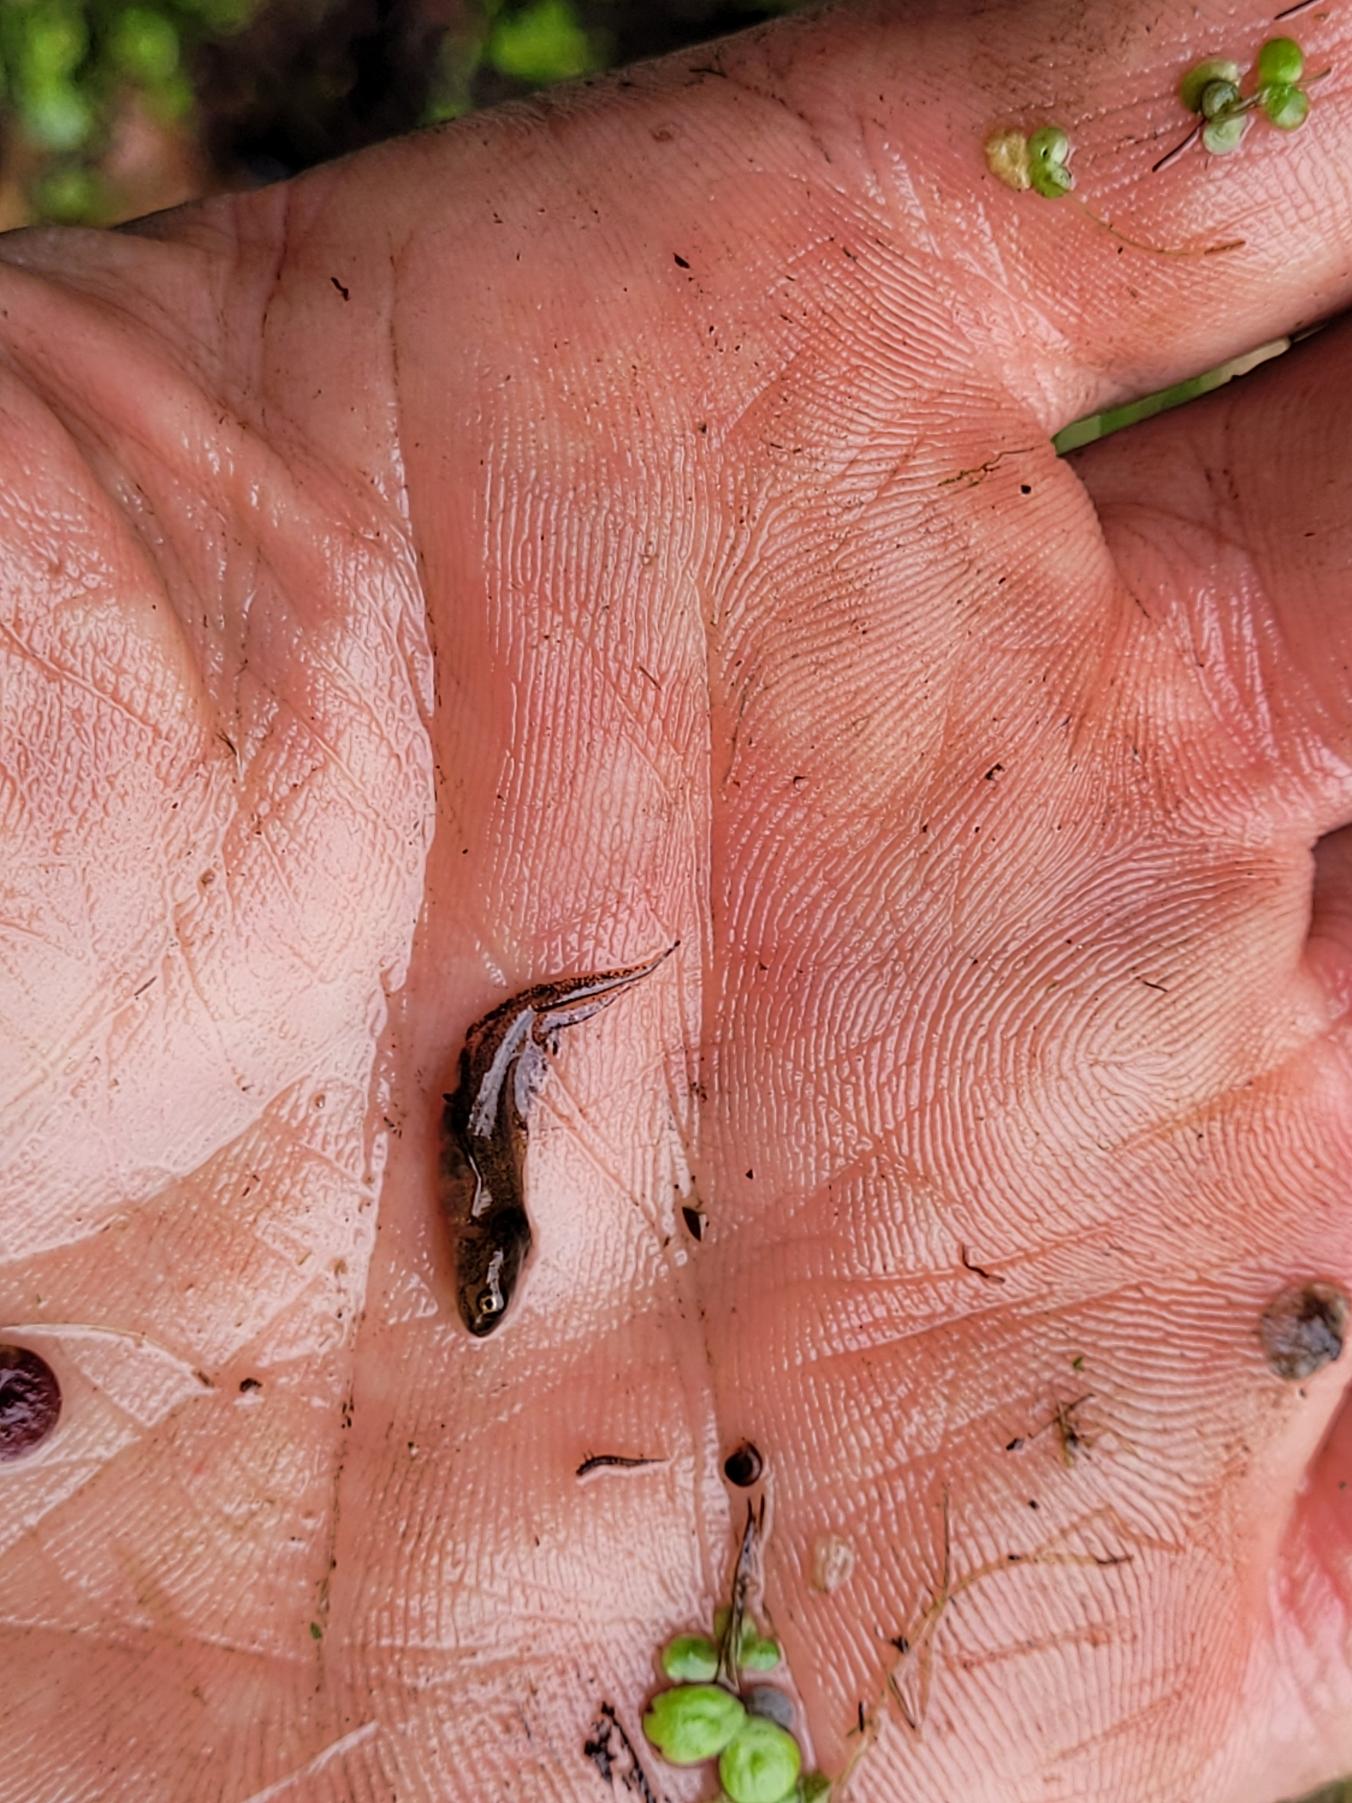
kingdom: Animalia
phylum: Chordata
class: Amphibia
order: Caudata
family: Salamandridae
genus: Triturus
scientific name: Triturus cristatus
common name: Stor vandsalamander
